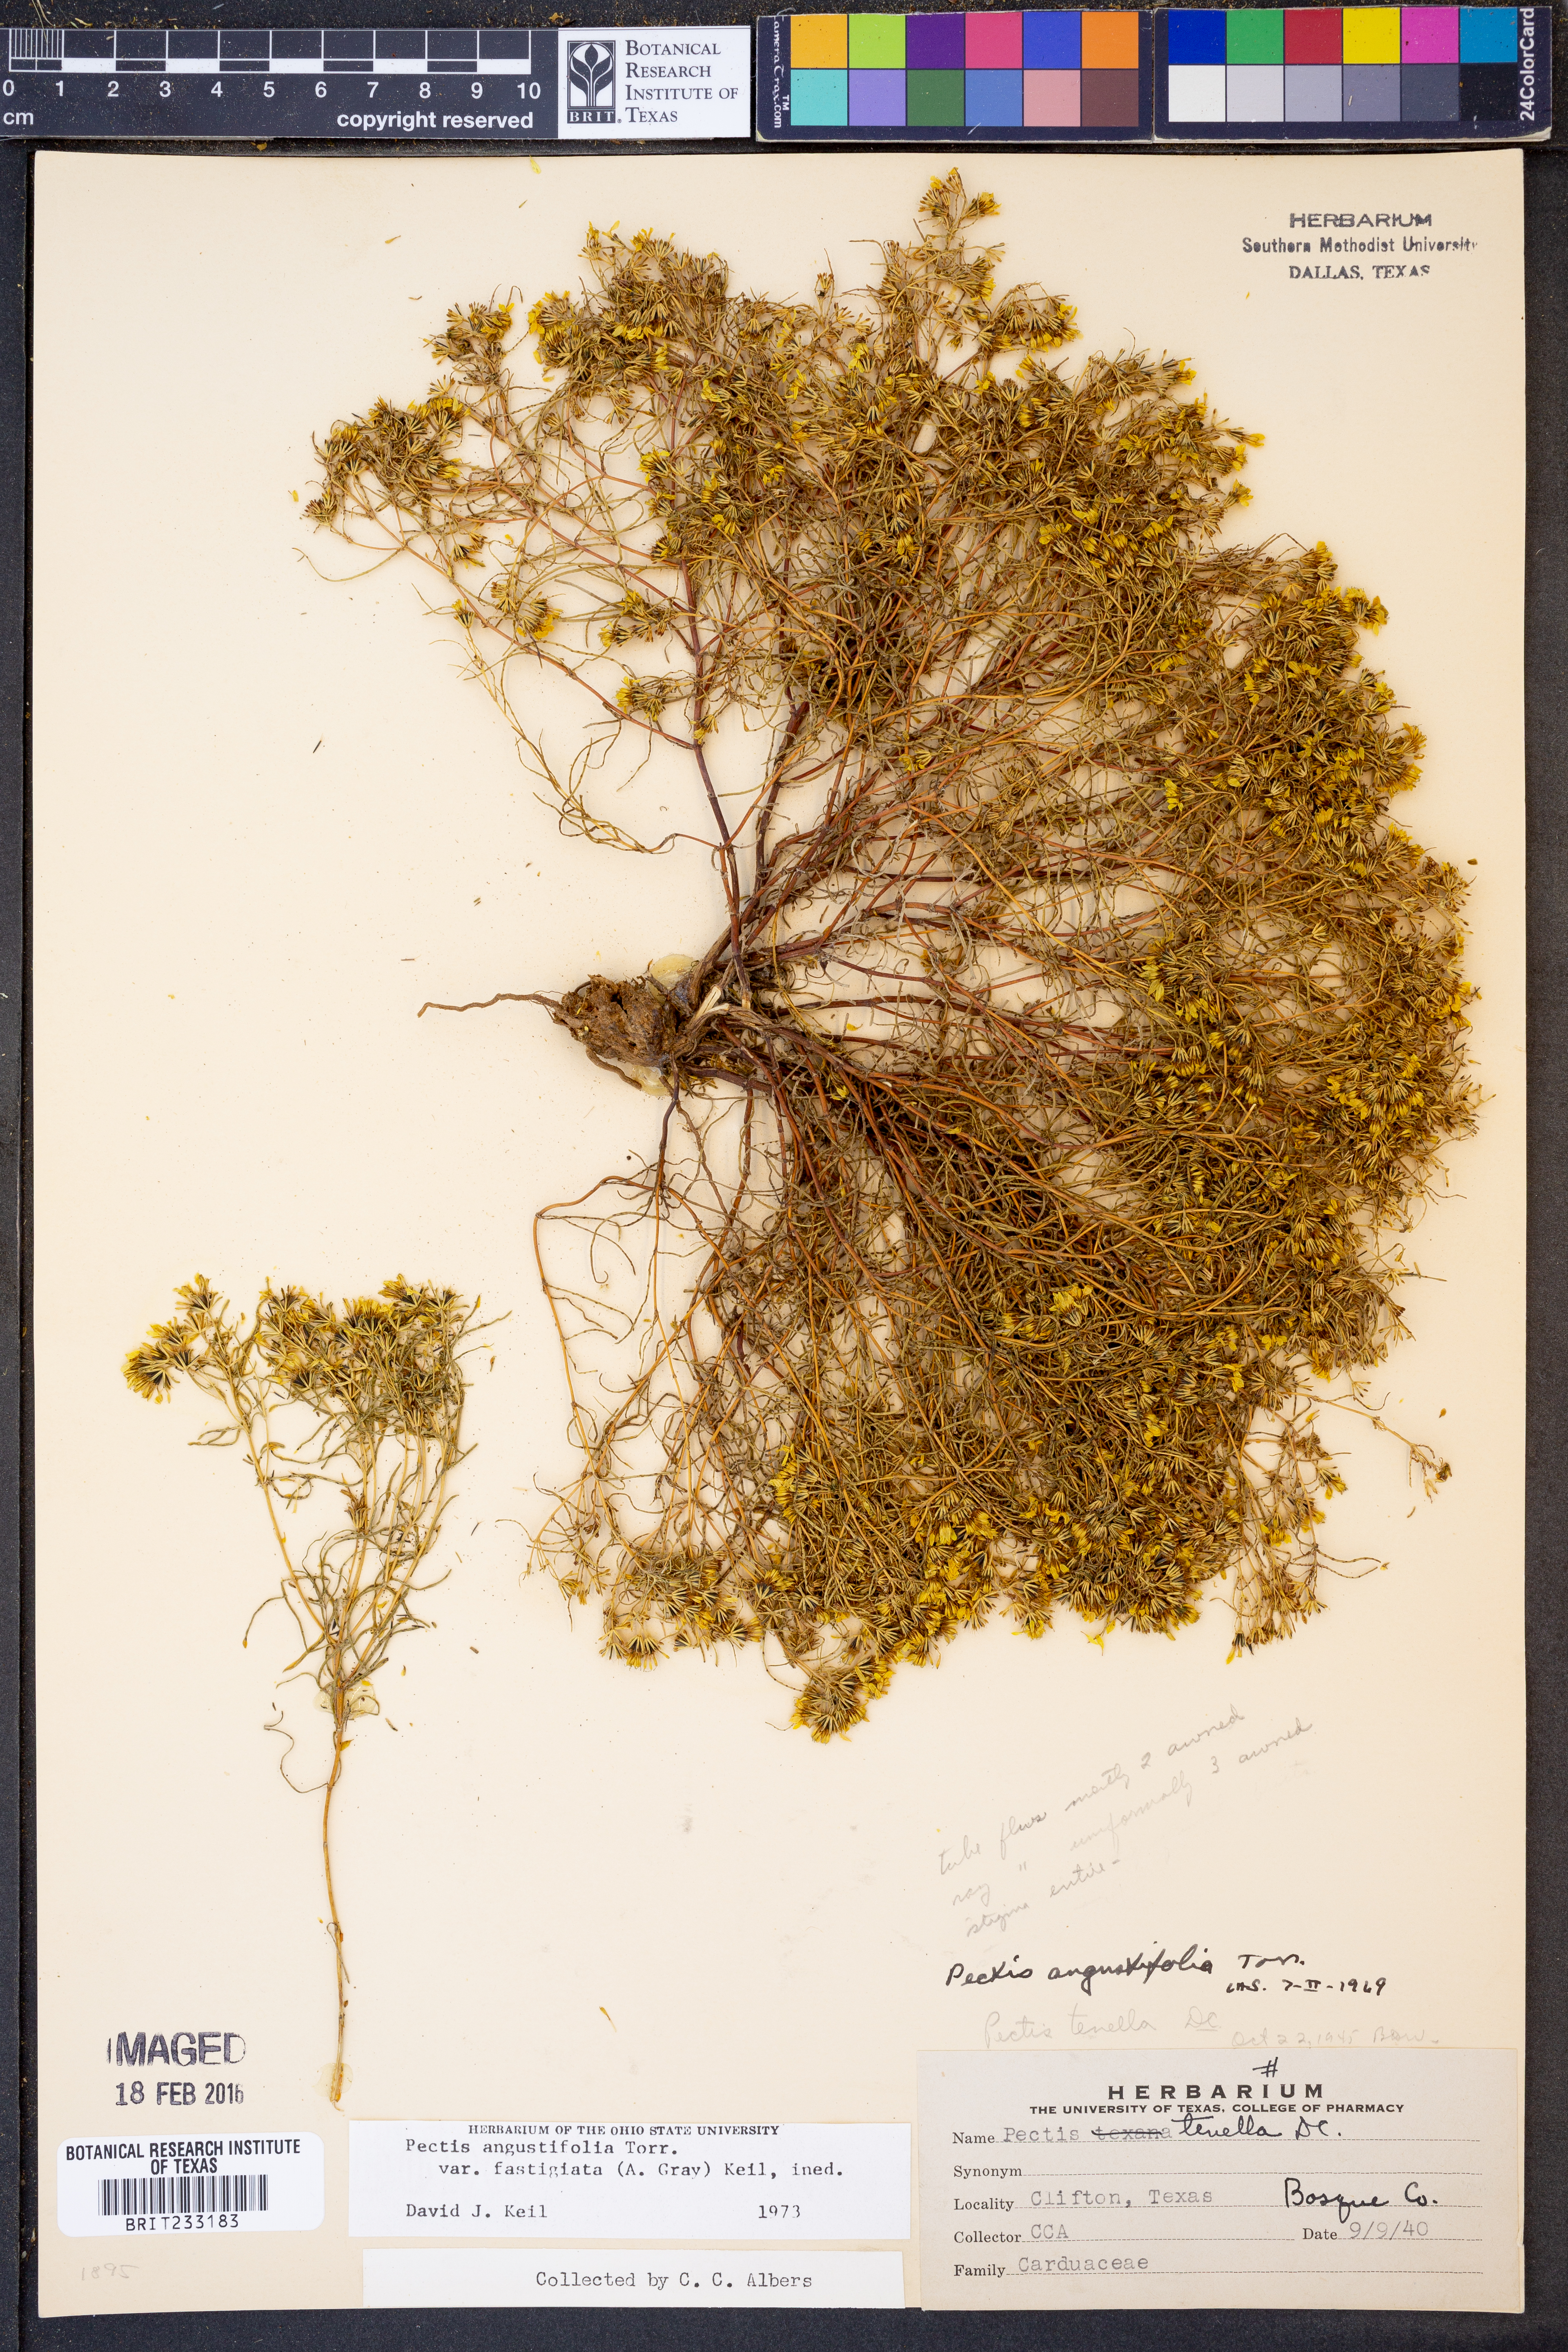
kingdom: Plantae
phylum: Tracheophyta
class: Magnoliopsida
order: Asterales
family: Asteraceae
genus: Pectis
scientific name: Pectis angustifolia
